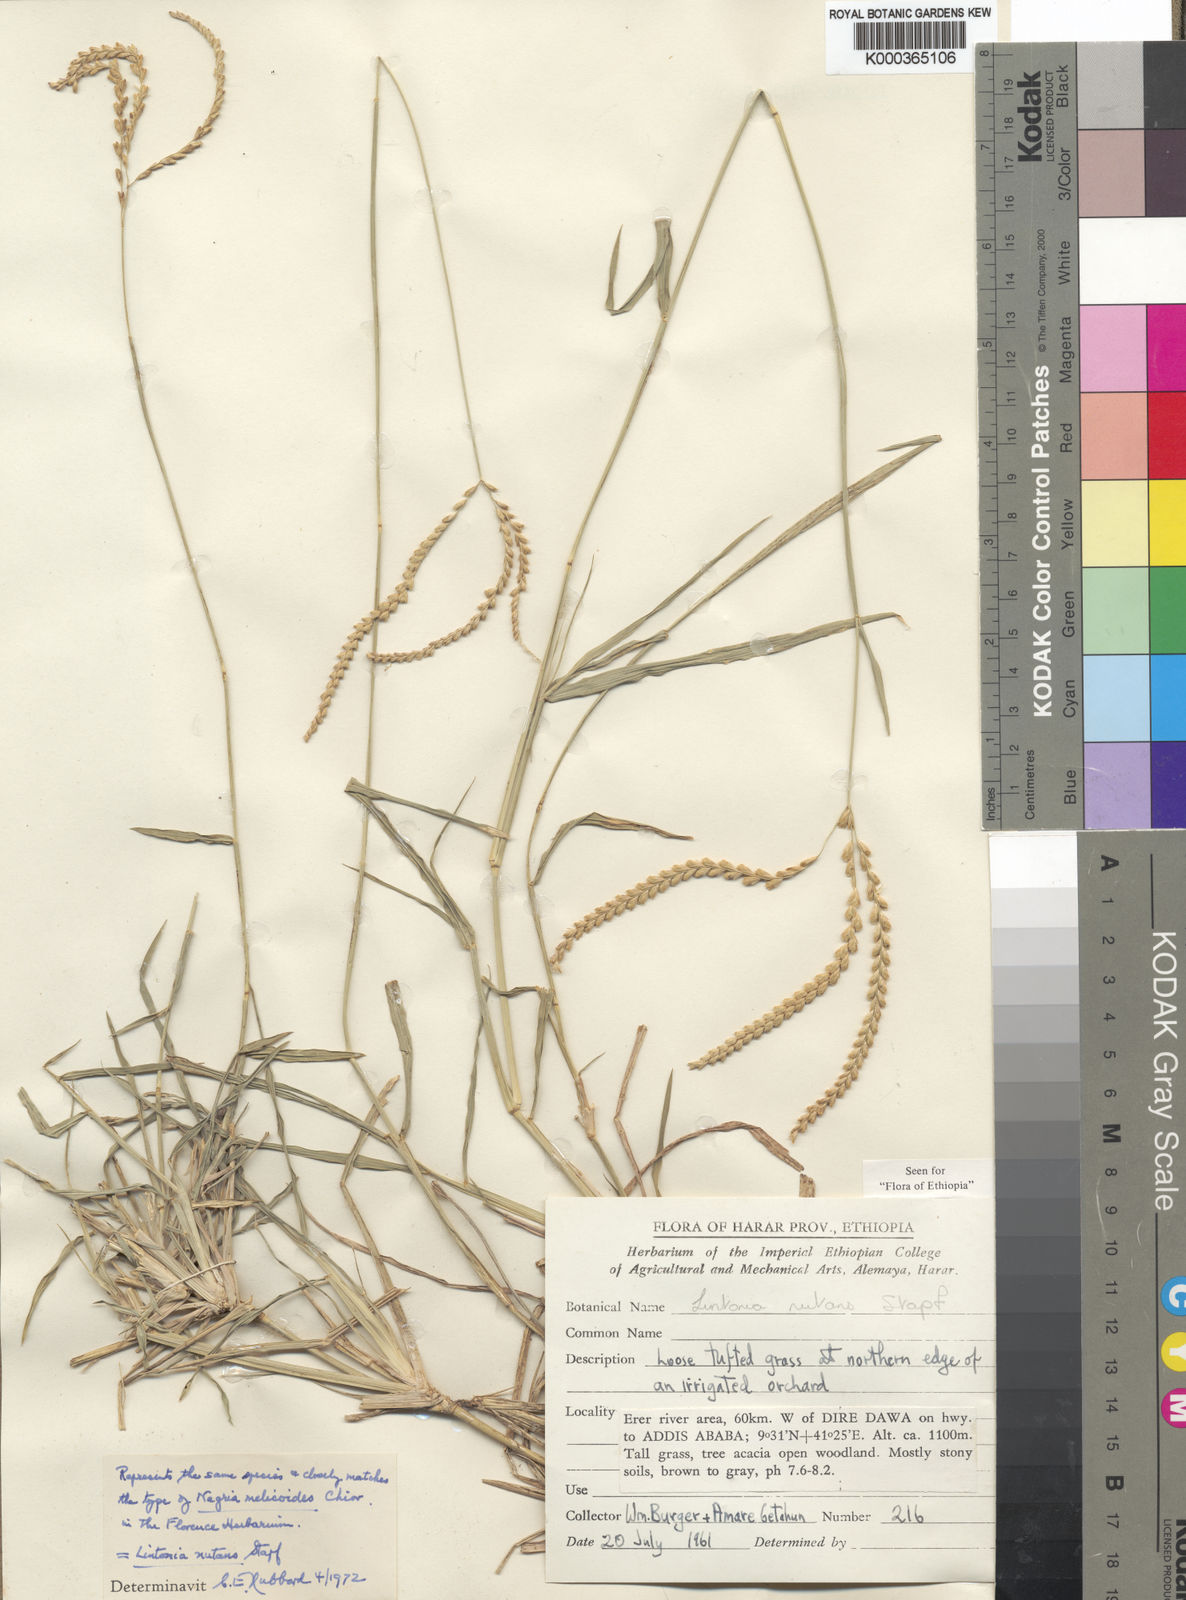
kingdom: Plantae
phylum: Tracheophyta
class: Liliopsida
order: Poales
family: Poaceae
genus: Chloris
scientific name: Chloris nutans
